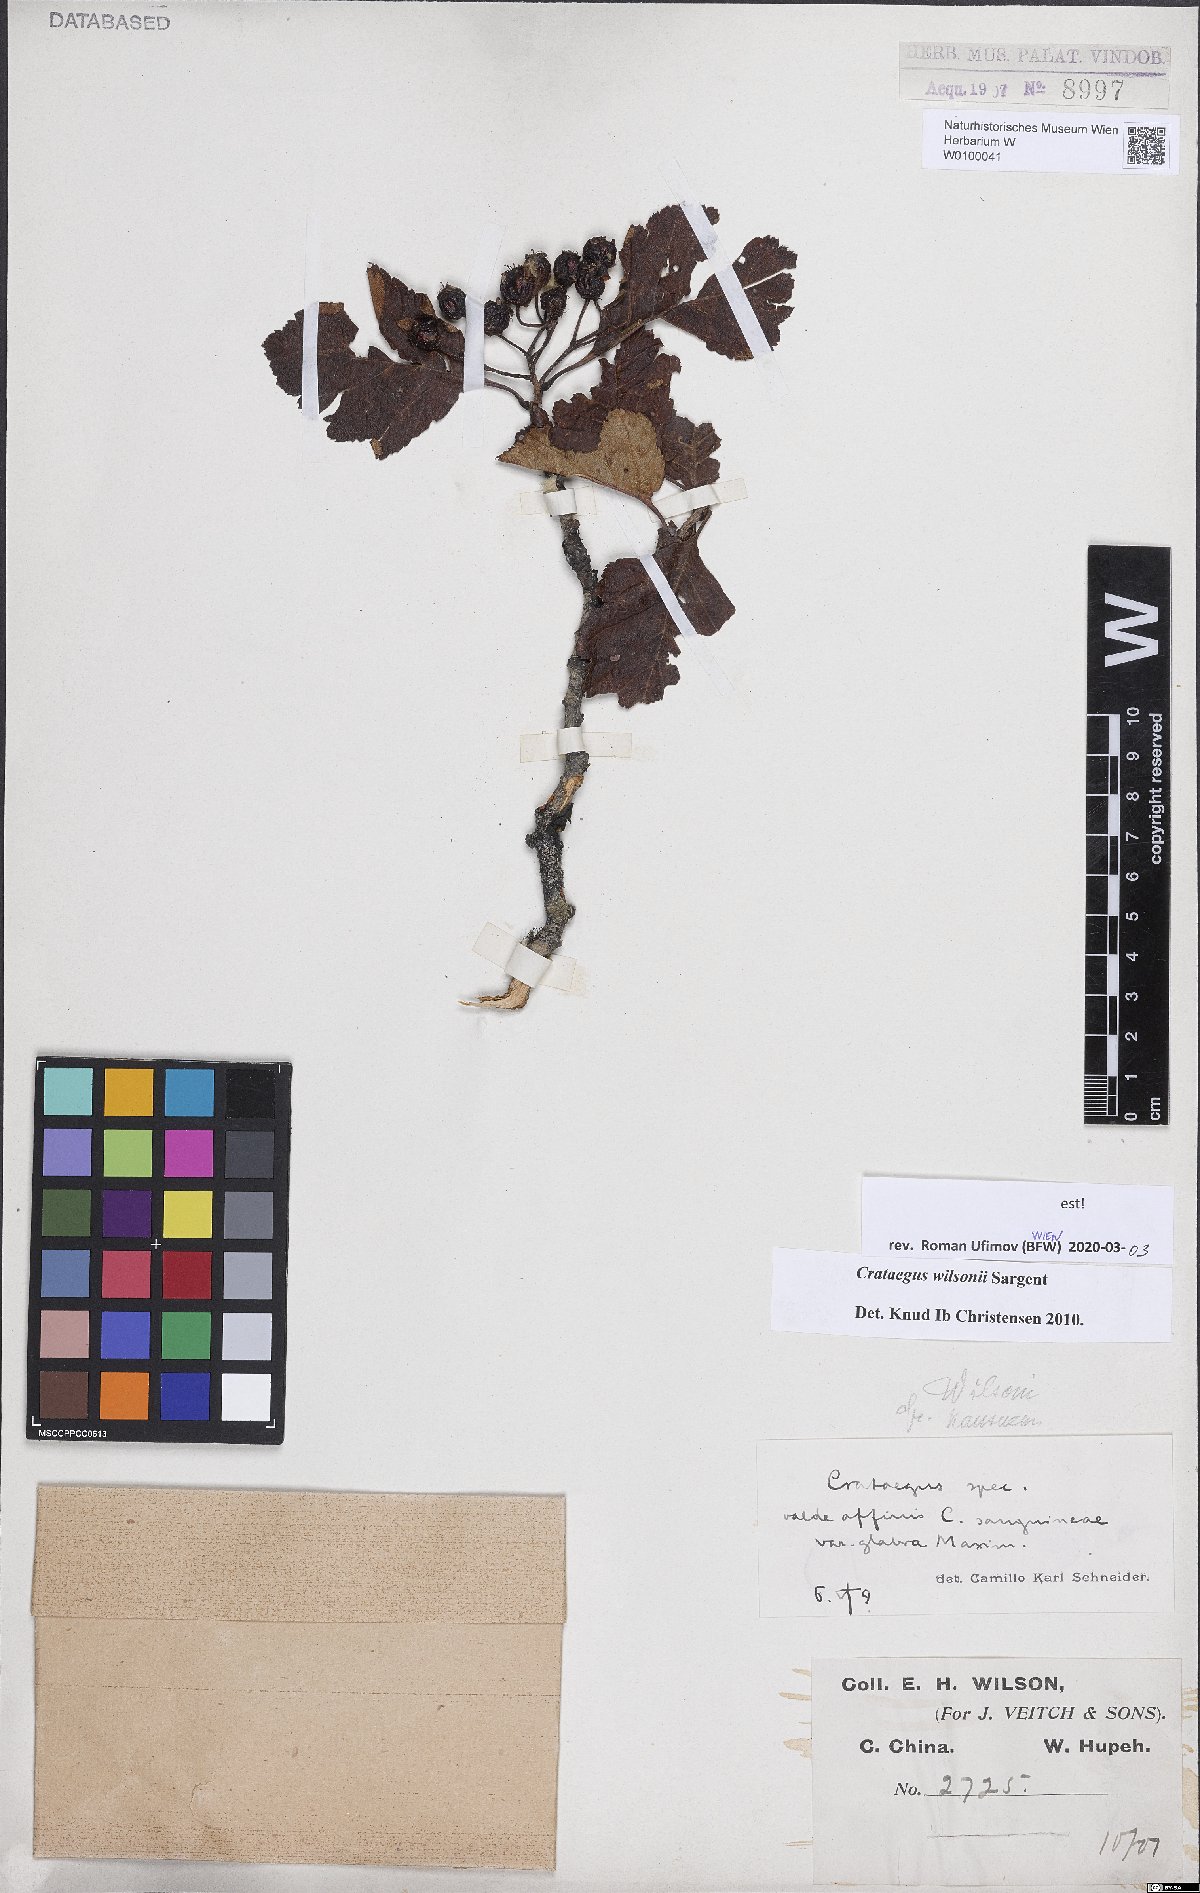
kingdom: Plantae
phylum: Tracheophyta
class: Magnoliopsida
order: Rosales
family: Rosaceae
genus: Crataegus
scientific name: Crataegus wilsonii
